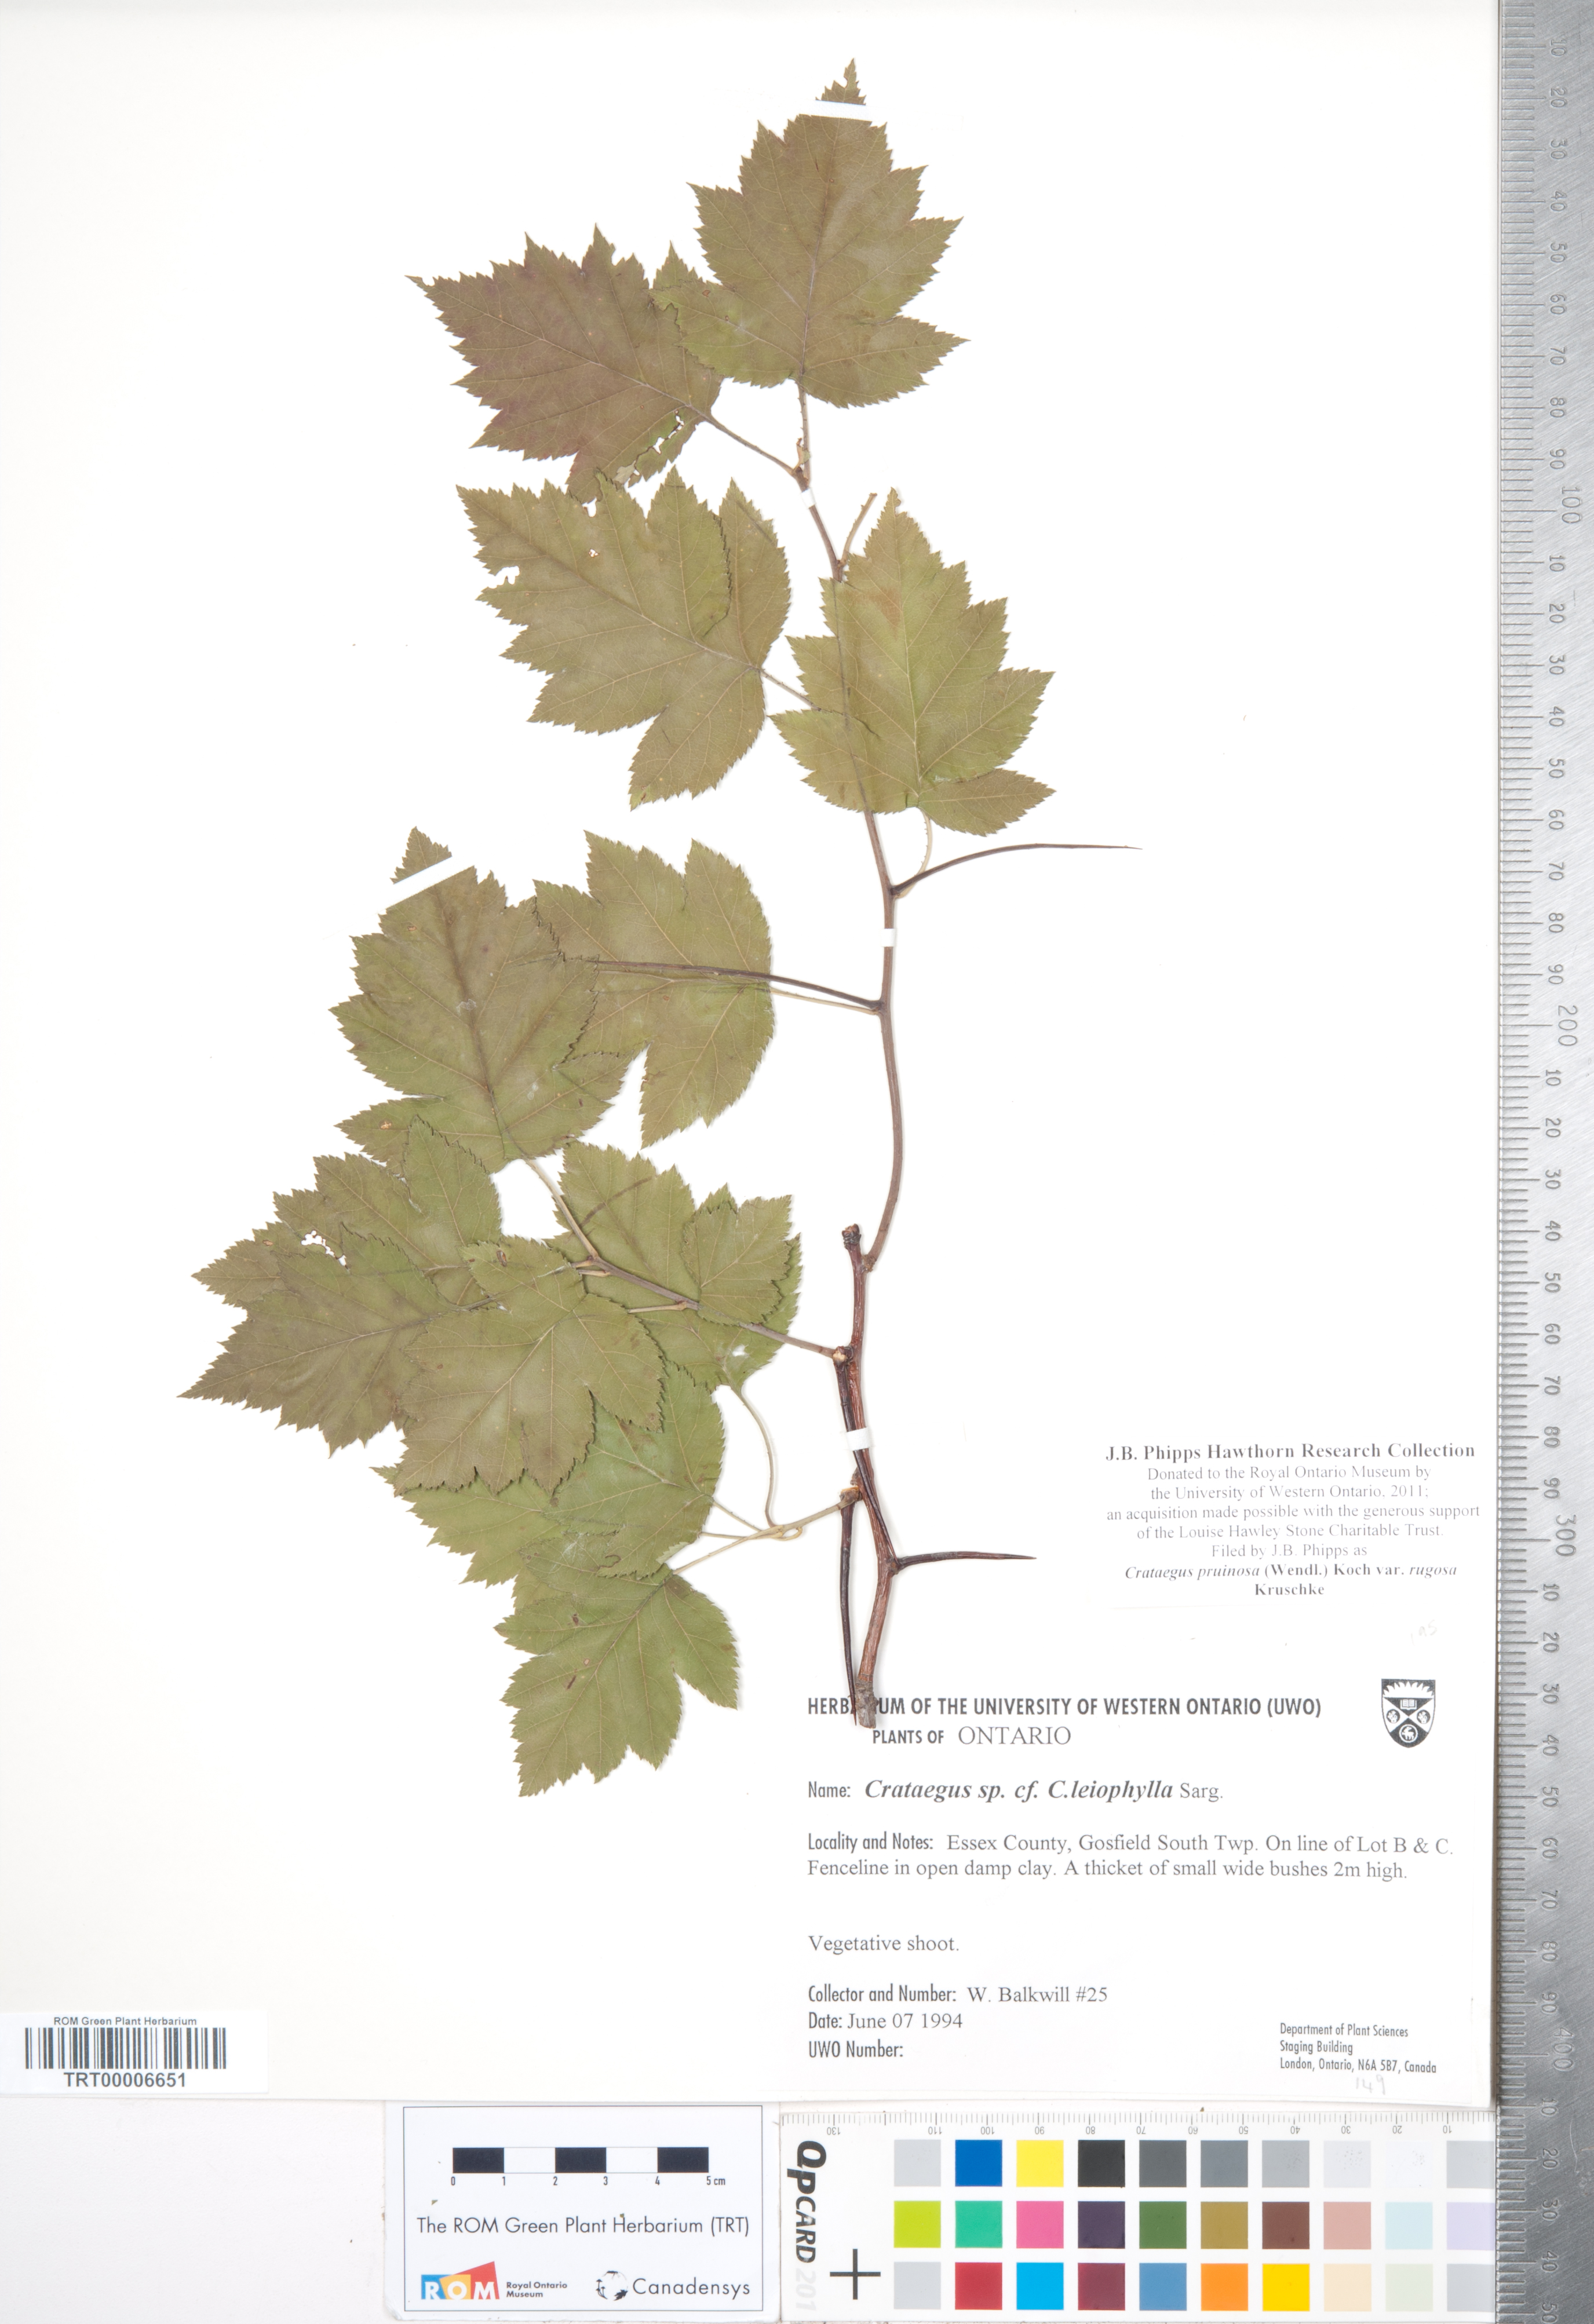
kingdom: Plantae
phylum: Tracheophyta
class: Magnoliopsida
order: Rosales
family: Rosaceae
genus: Crataegus
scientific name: Crataegus pruinosa
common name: Waxy-fruit hawthorn
